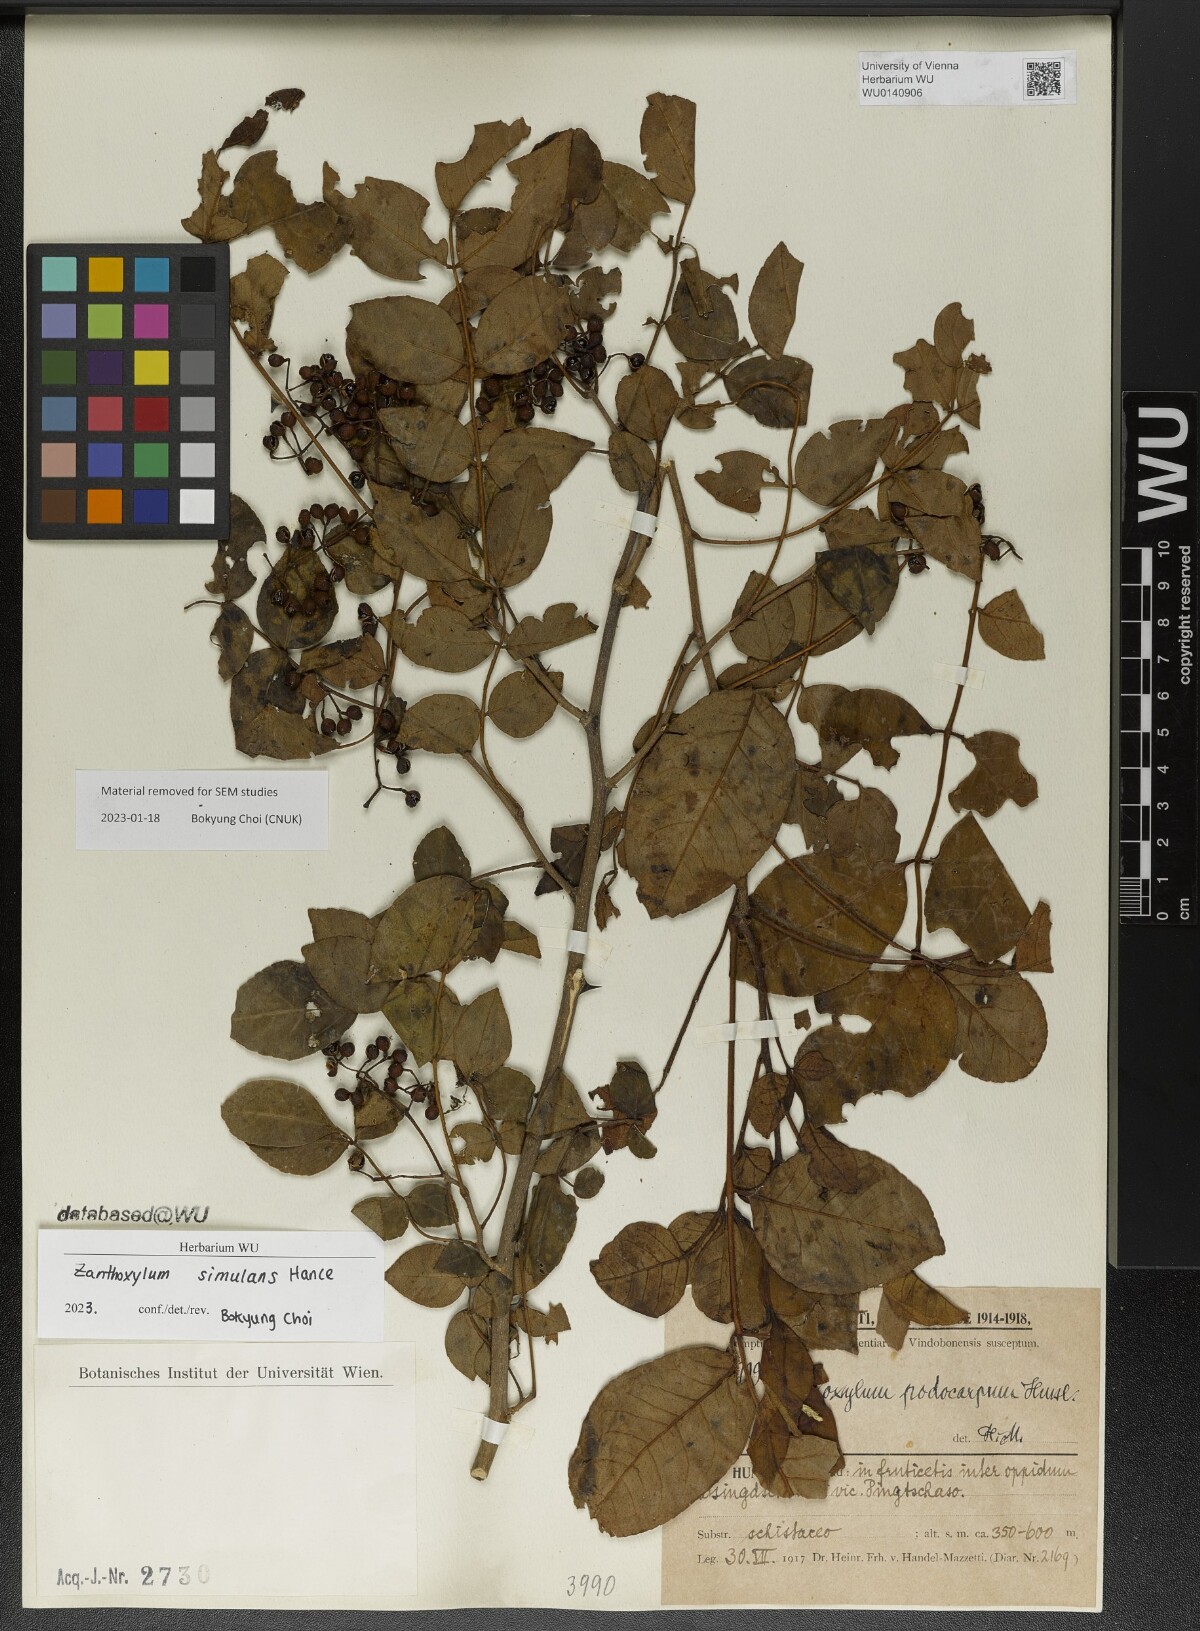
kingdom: Plantae
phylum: Tracheophyta
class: Magnoliopsida
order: Sapindales
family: Rutaceae
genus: Zanthoxylum
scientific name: Zanthoxylum simulans
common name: Chinese-pepper
